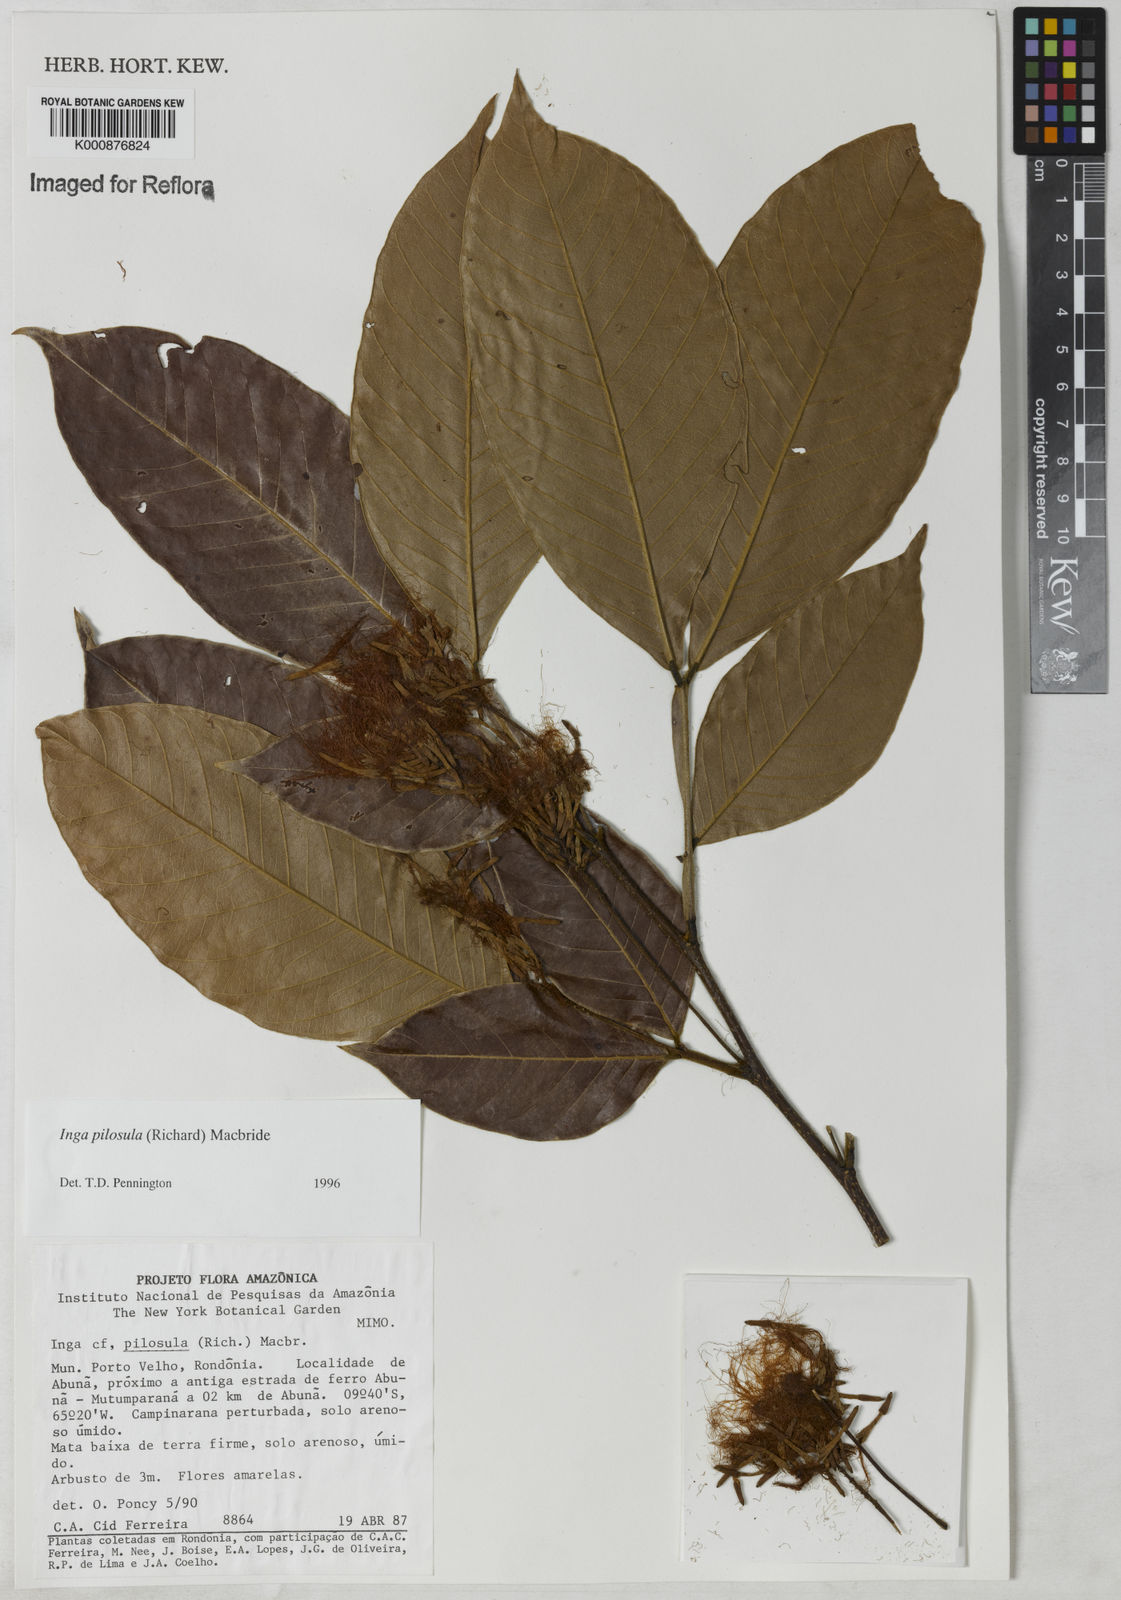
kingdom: Plantae
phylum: Tracheophyta
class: Magnoliopsida
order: Fabales
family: Fabaceae
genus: Inga
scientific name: Inga pilosula
